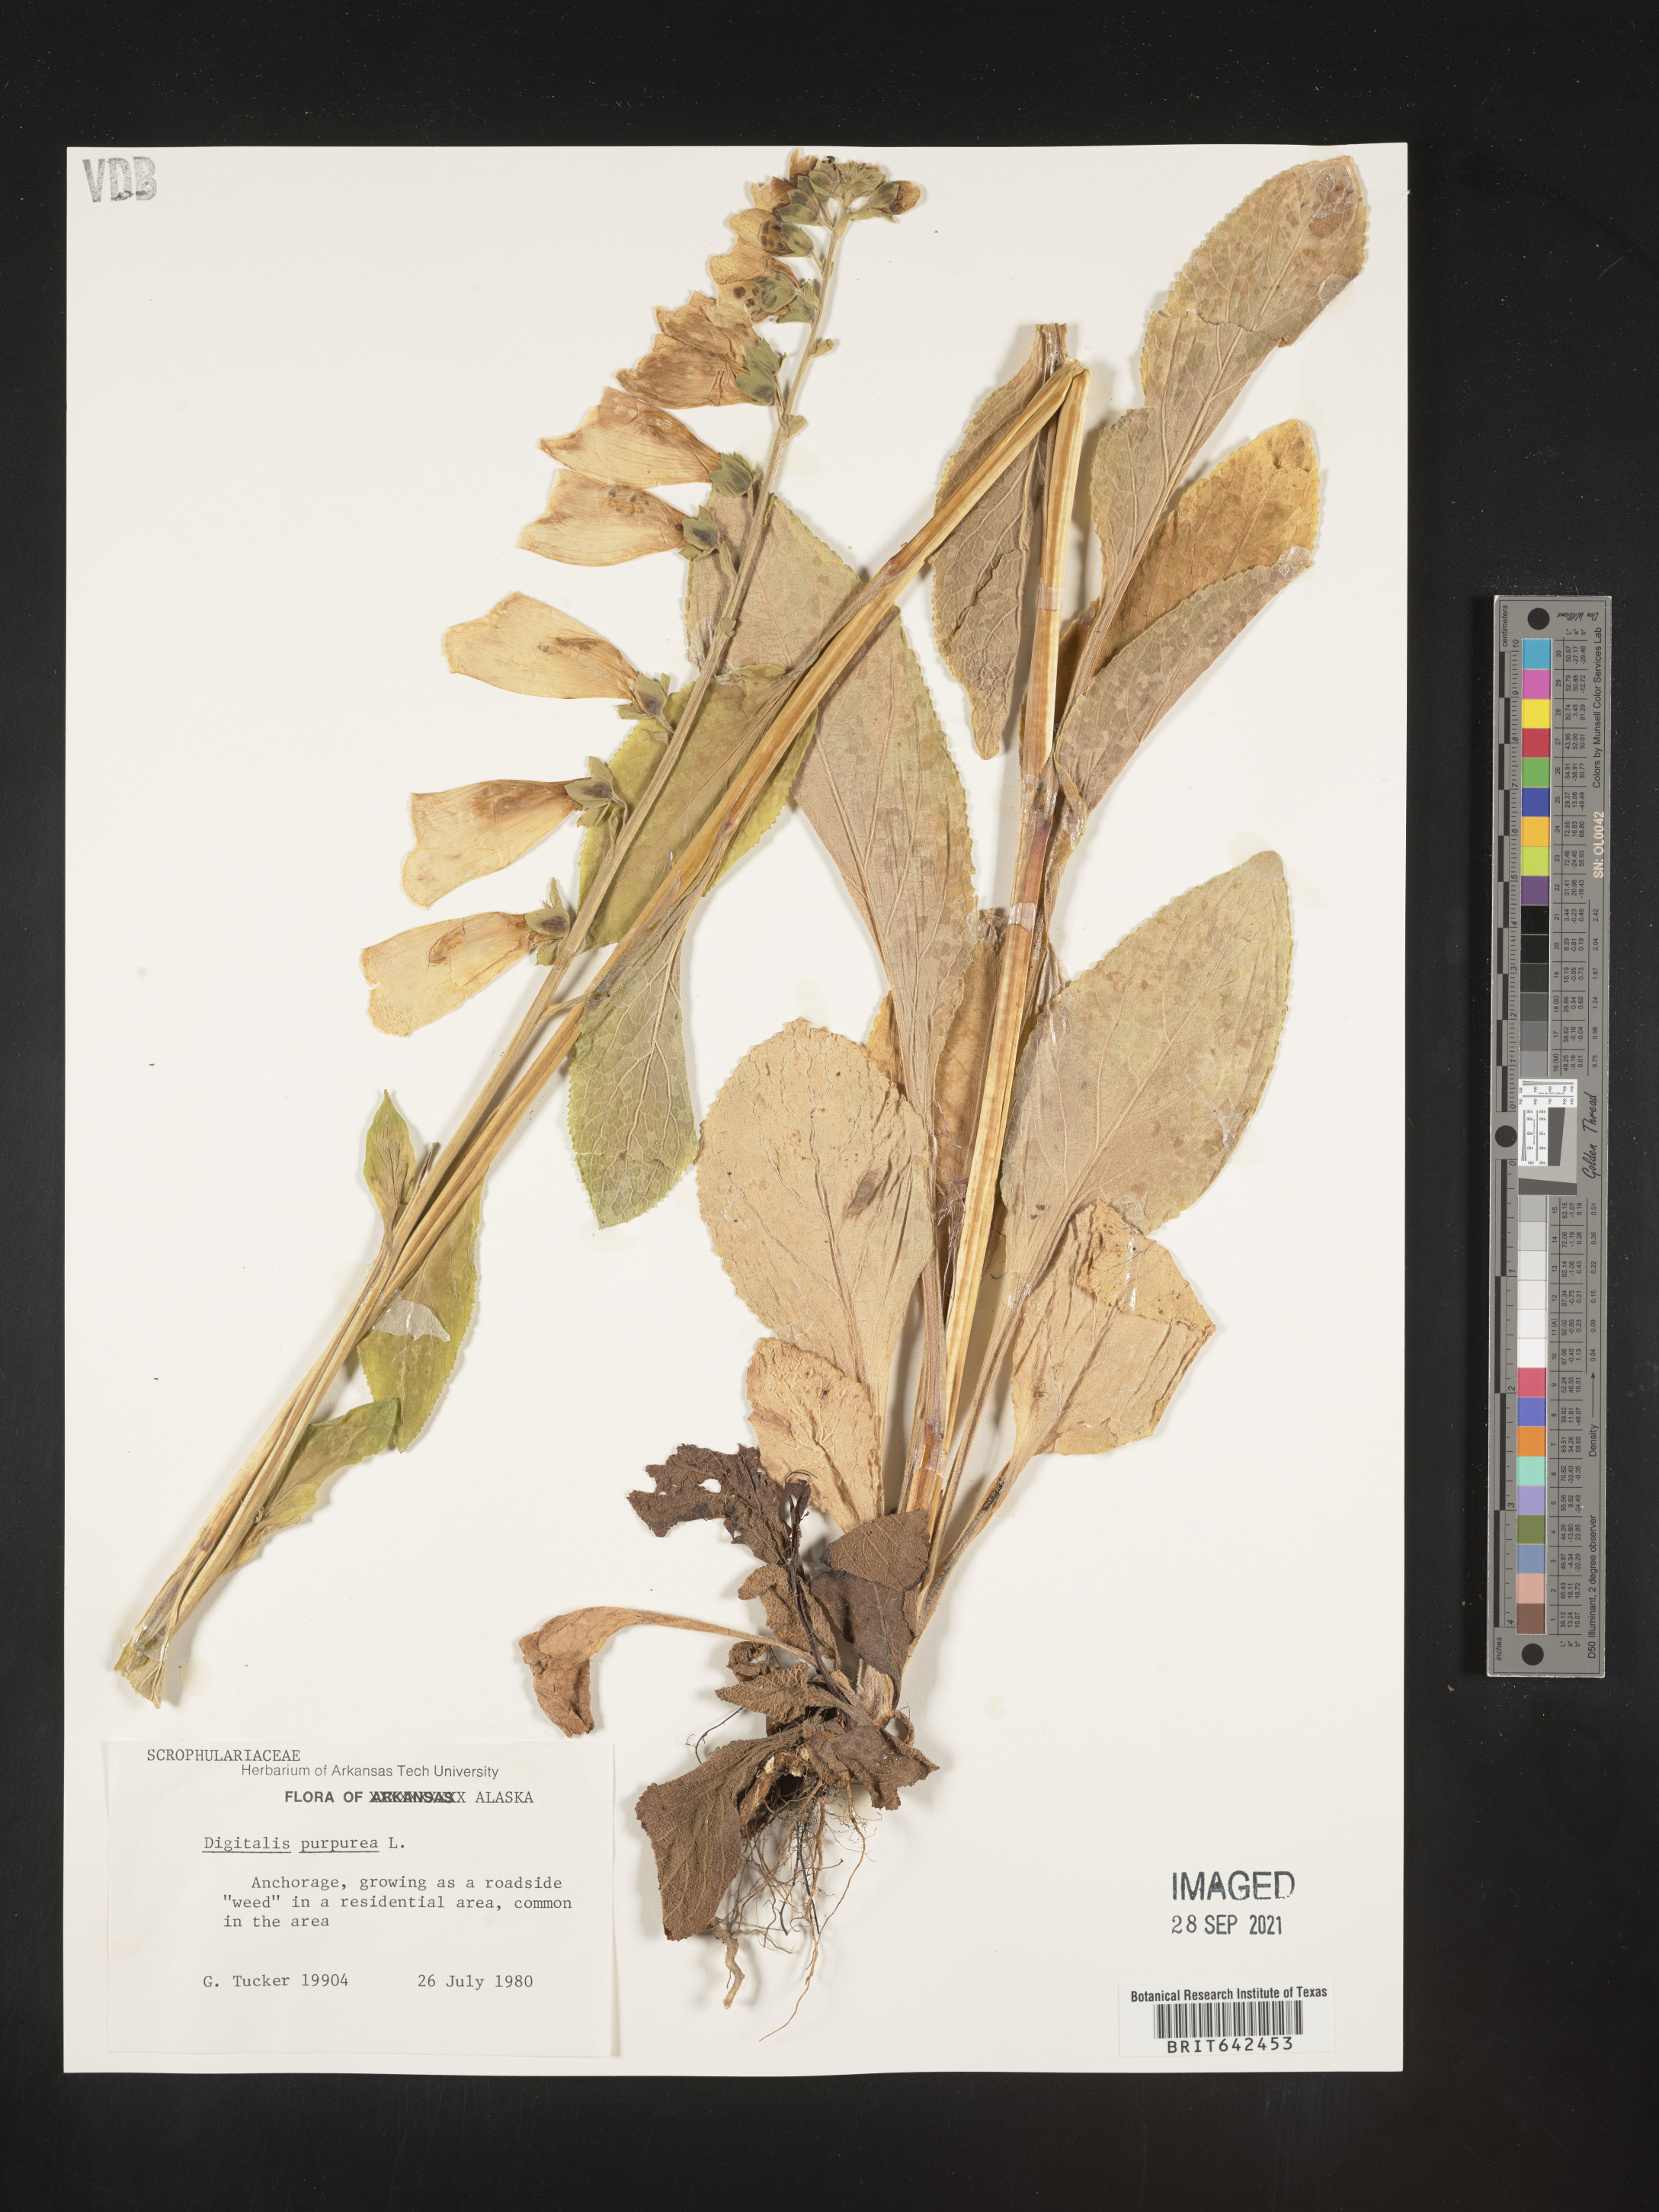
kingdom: Plantae
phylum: Tracheophyta
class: Magnoliopsida
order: Lamiales
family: Plantaginaceae
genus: Digitalis
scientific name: Digitalis
